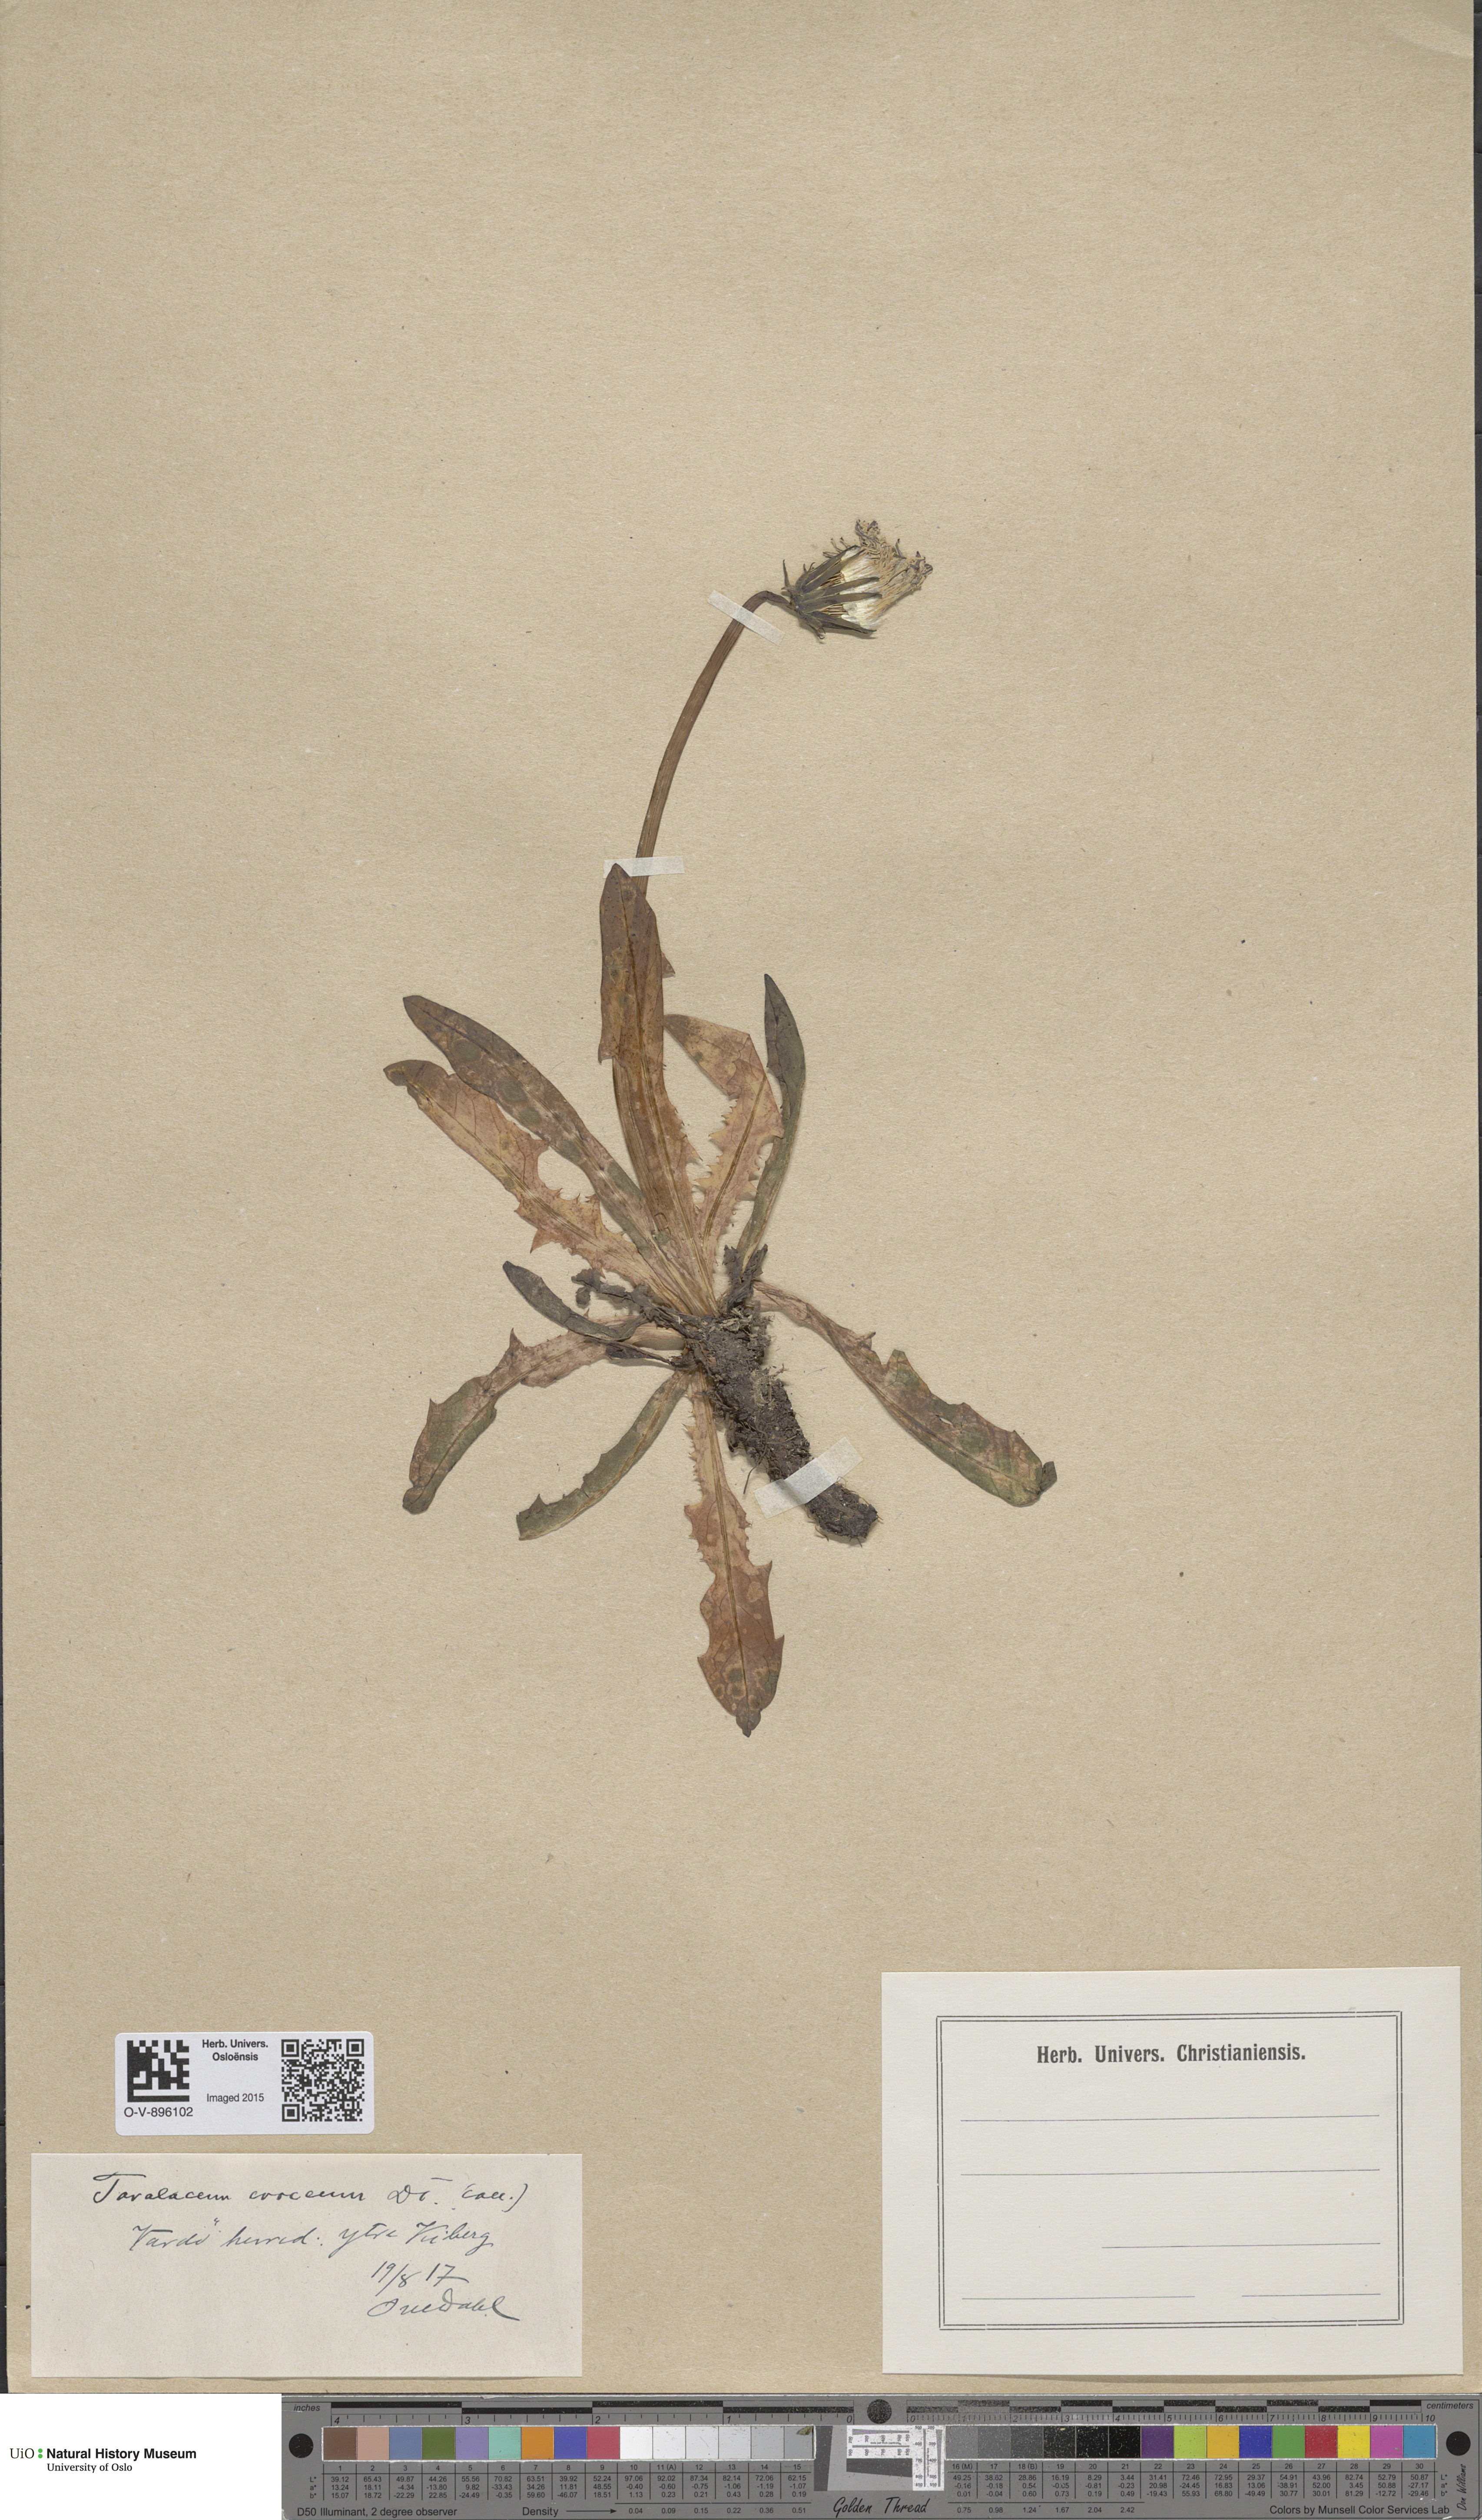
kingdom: Plantae
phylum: Tracheophyta
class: Magnoliopsida
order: Asterales
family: Asteraceae
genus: Taraxacum
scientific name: Taraxacum croceum
